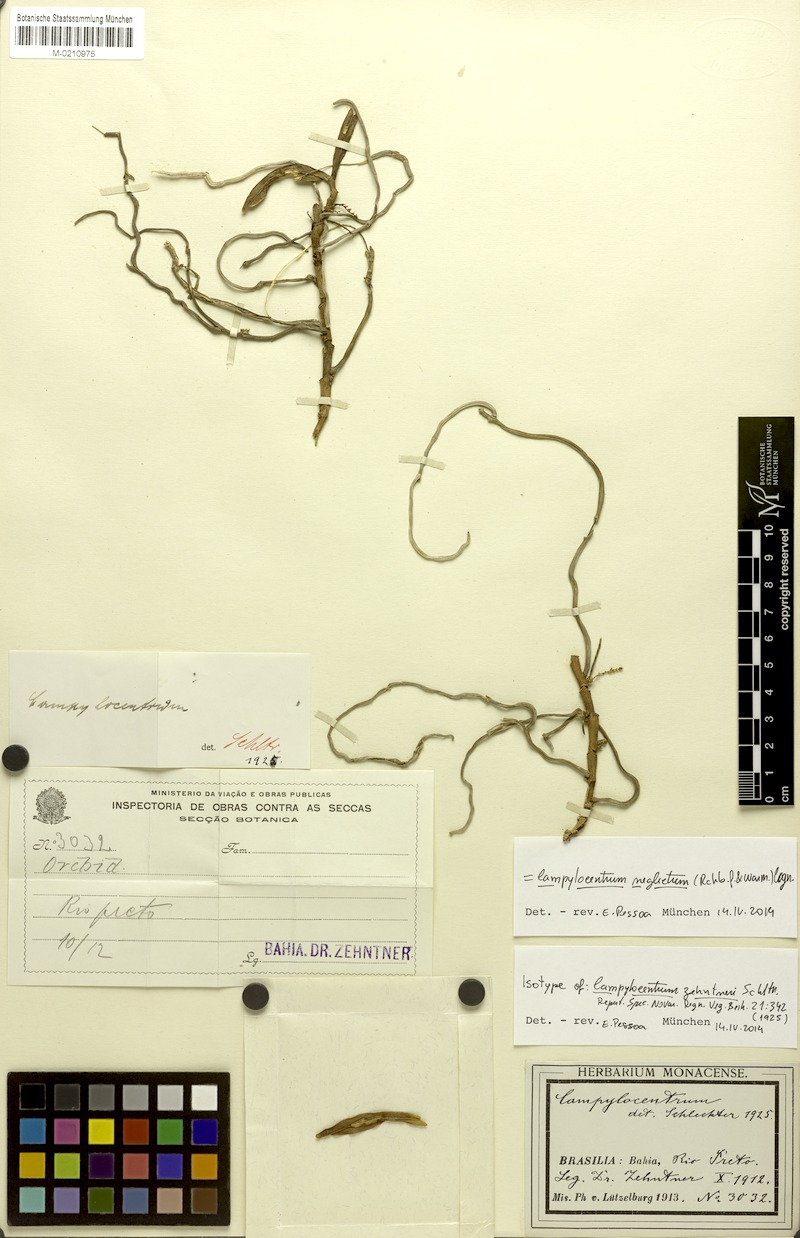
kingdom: Plantae
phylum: Tracheophyta
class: Liliopsida
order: Asparagales
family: Orchidaceae
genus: Campylocentrum
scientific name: Campylocentrum neglectum
